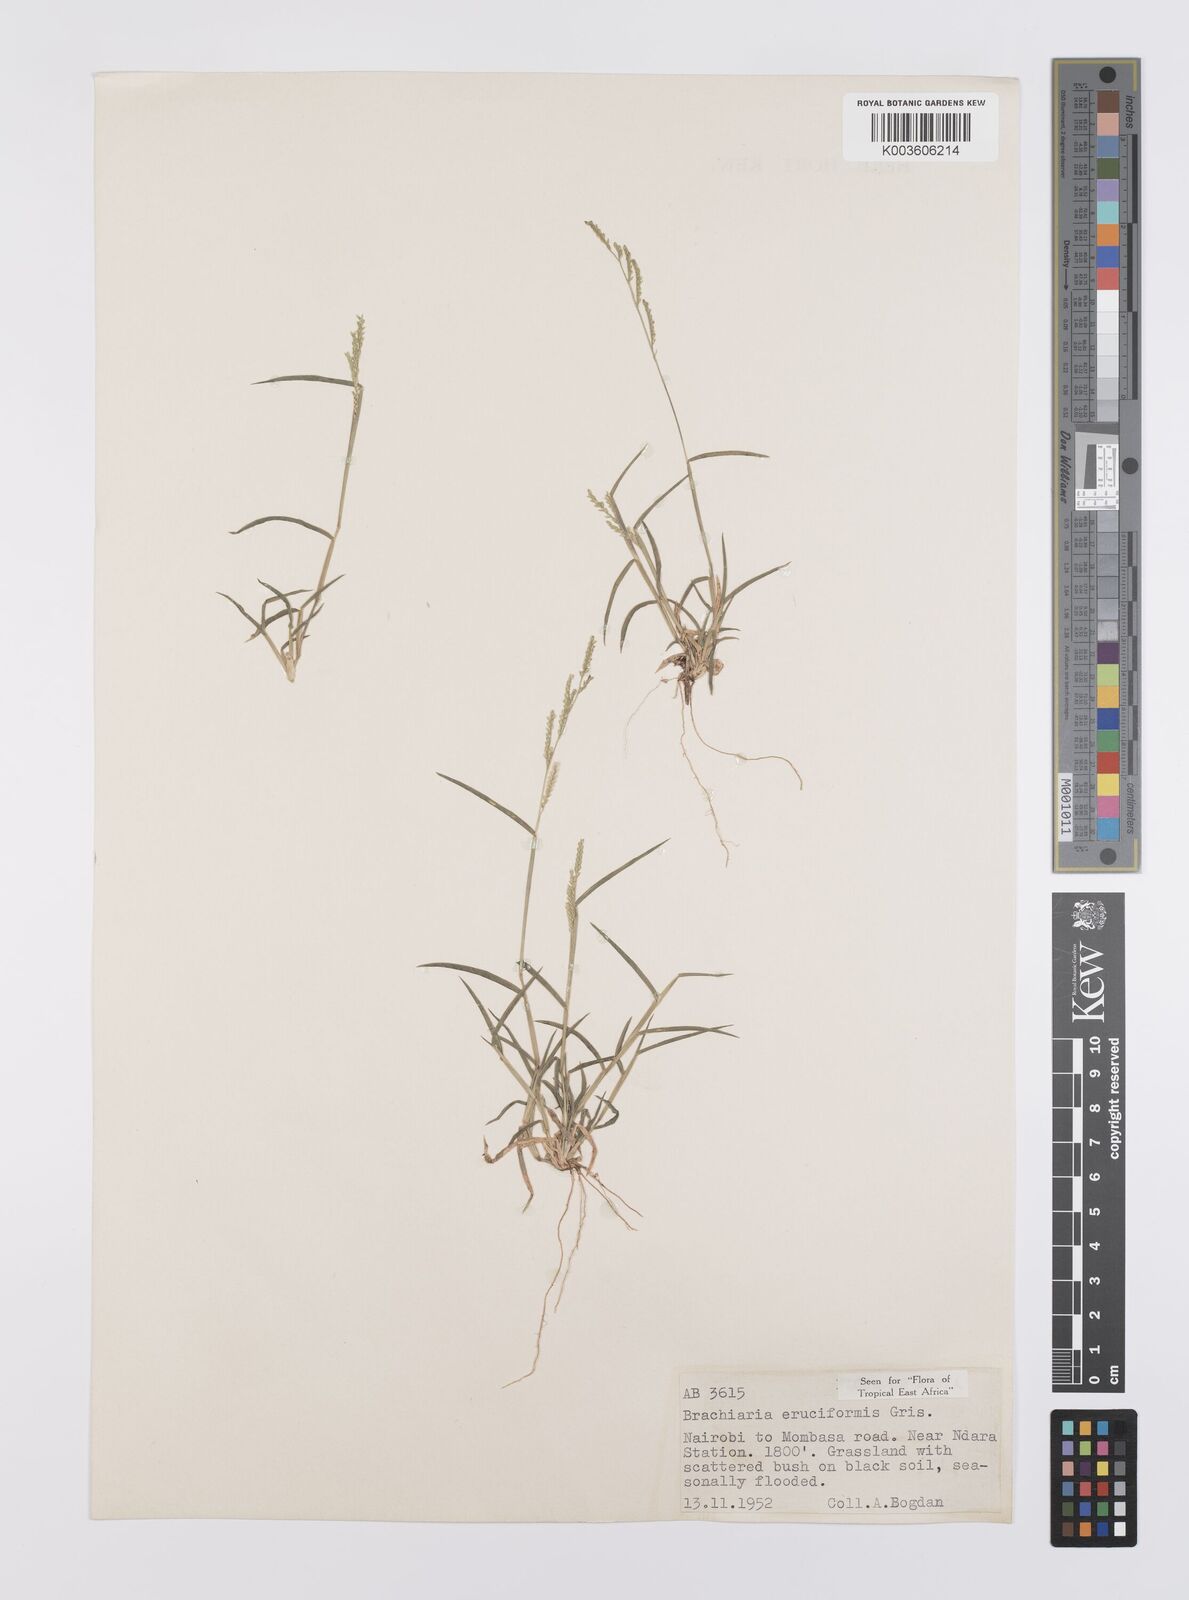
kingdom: Plantae
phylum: Tracheophyta
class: Liliopsida
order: Poales
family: Poaceae
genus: Moorochloa
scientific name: Moorochloa eruciformis
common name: Sweet signalgrass
